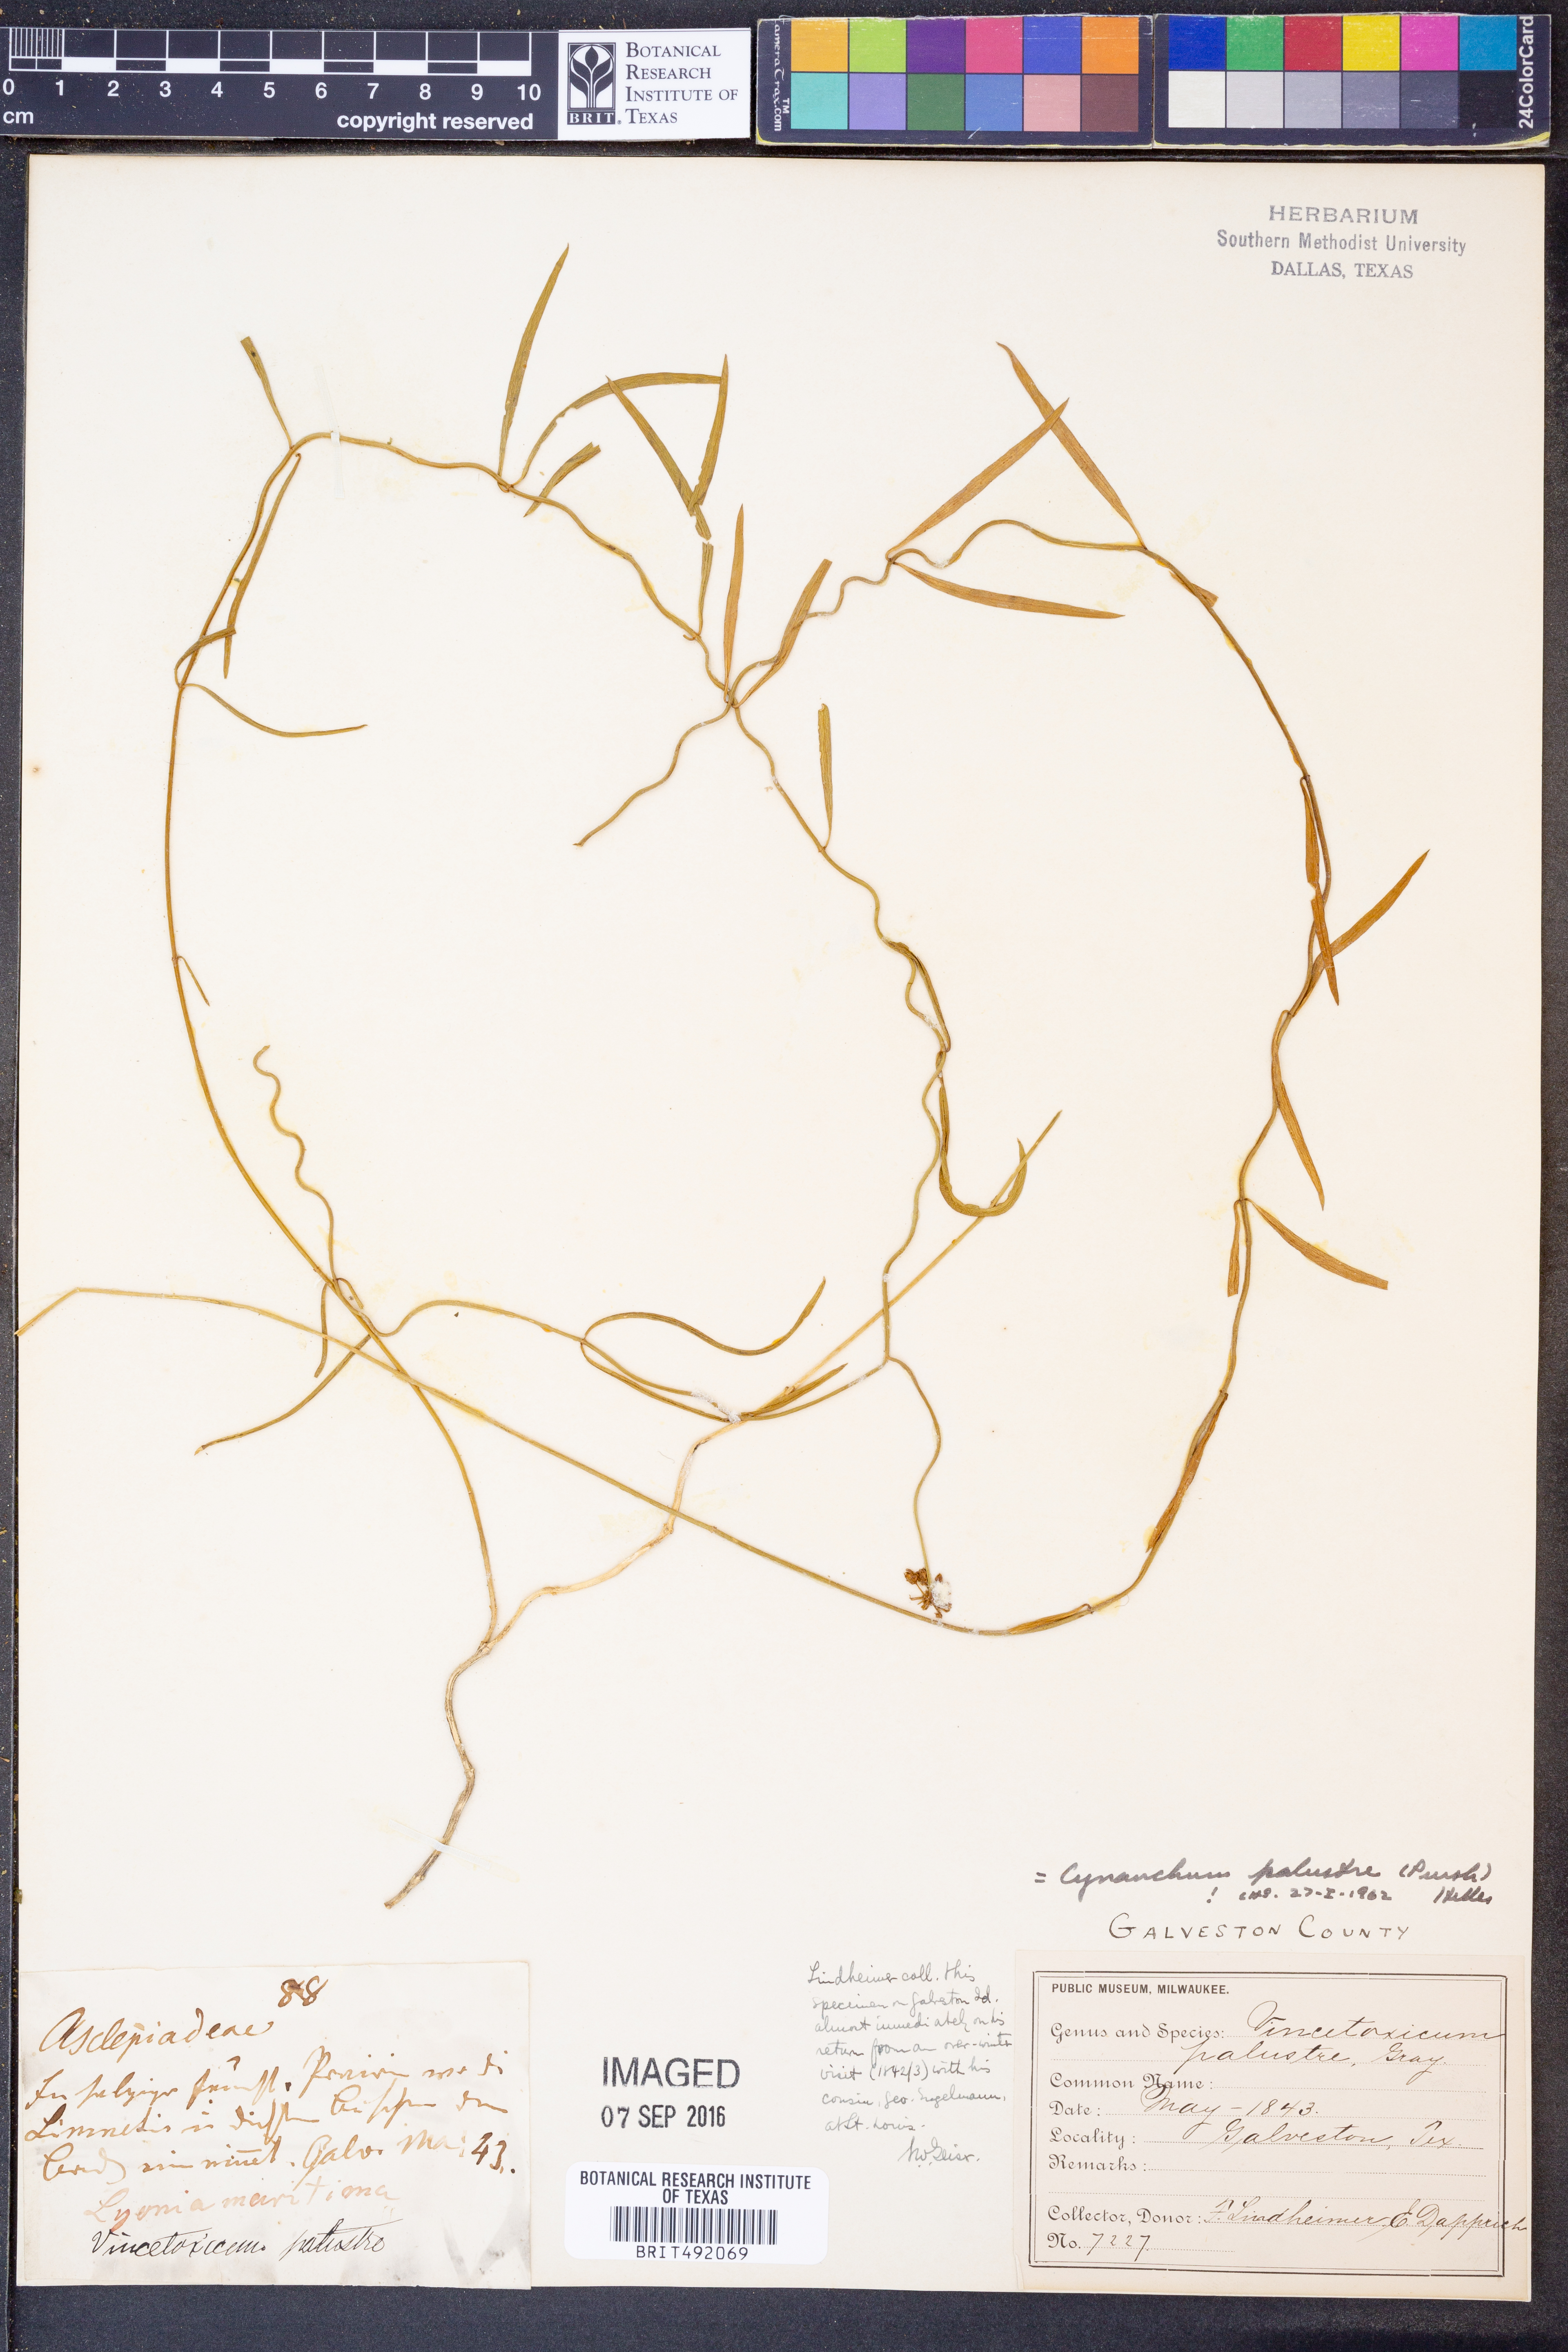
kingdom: Plantae
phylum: Tracheophyta
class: Magnoliopsida
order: Gentianales
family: Apocynaceae
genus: Pattalias
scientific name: Pattalias palustris
